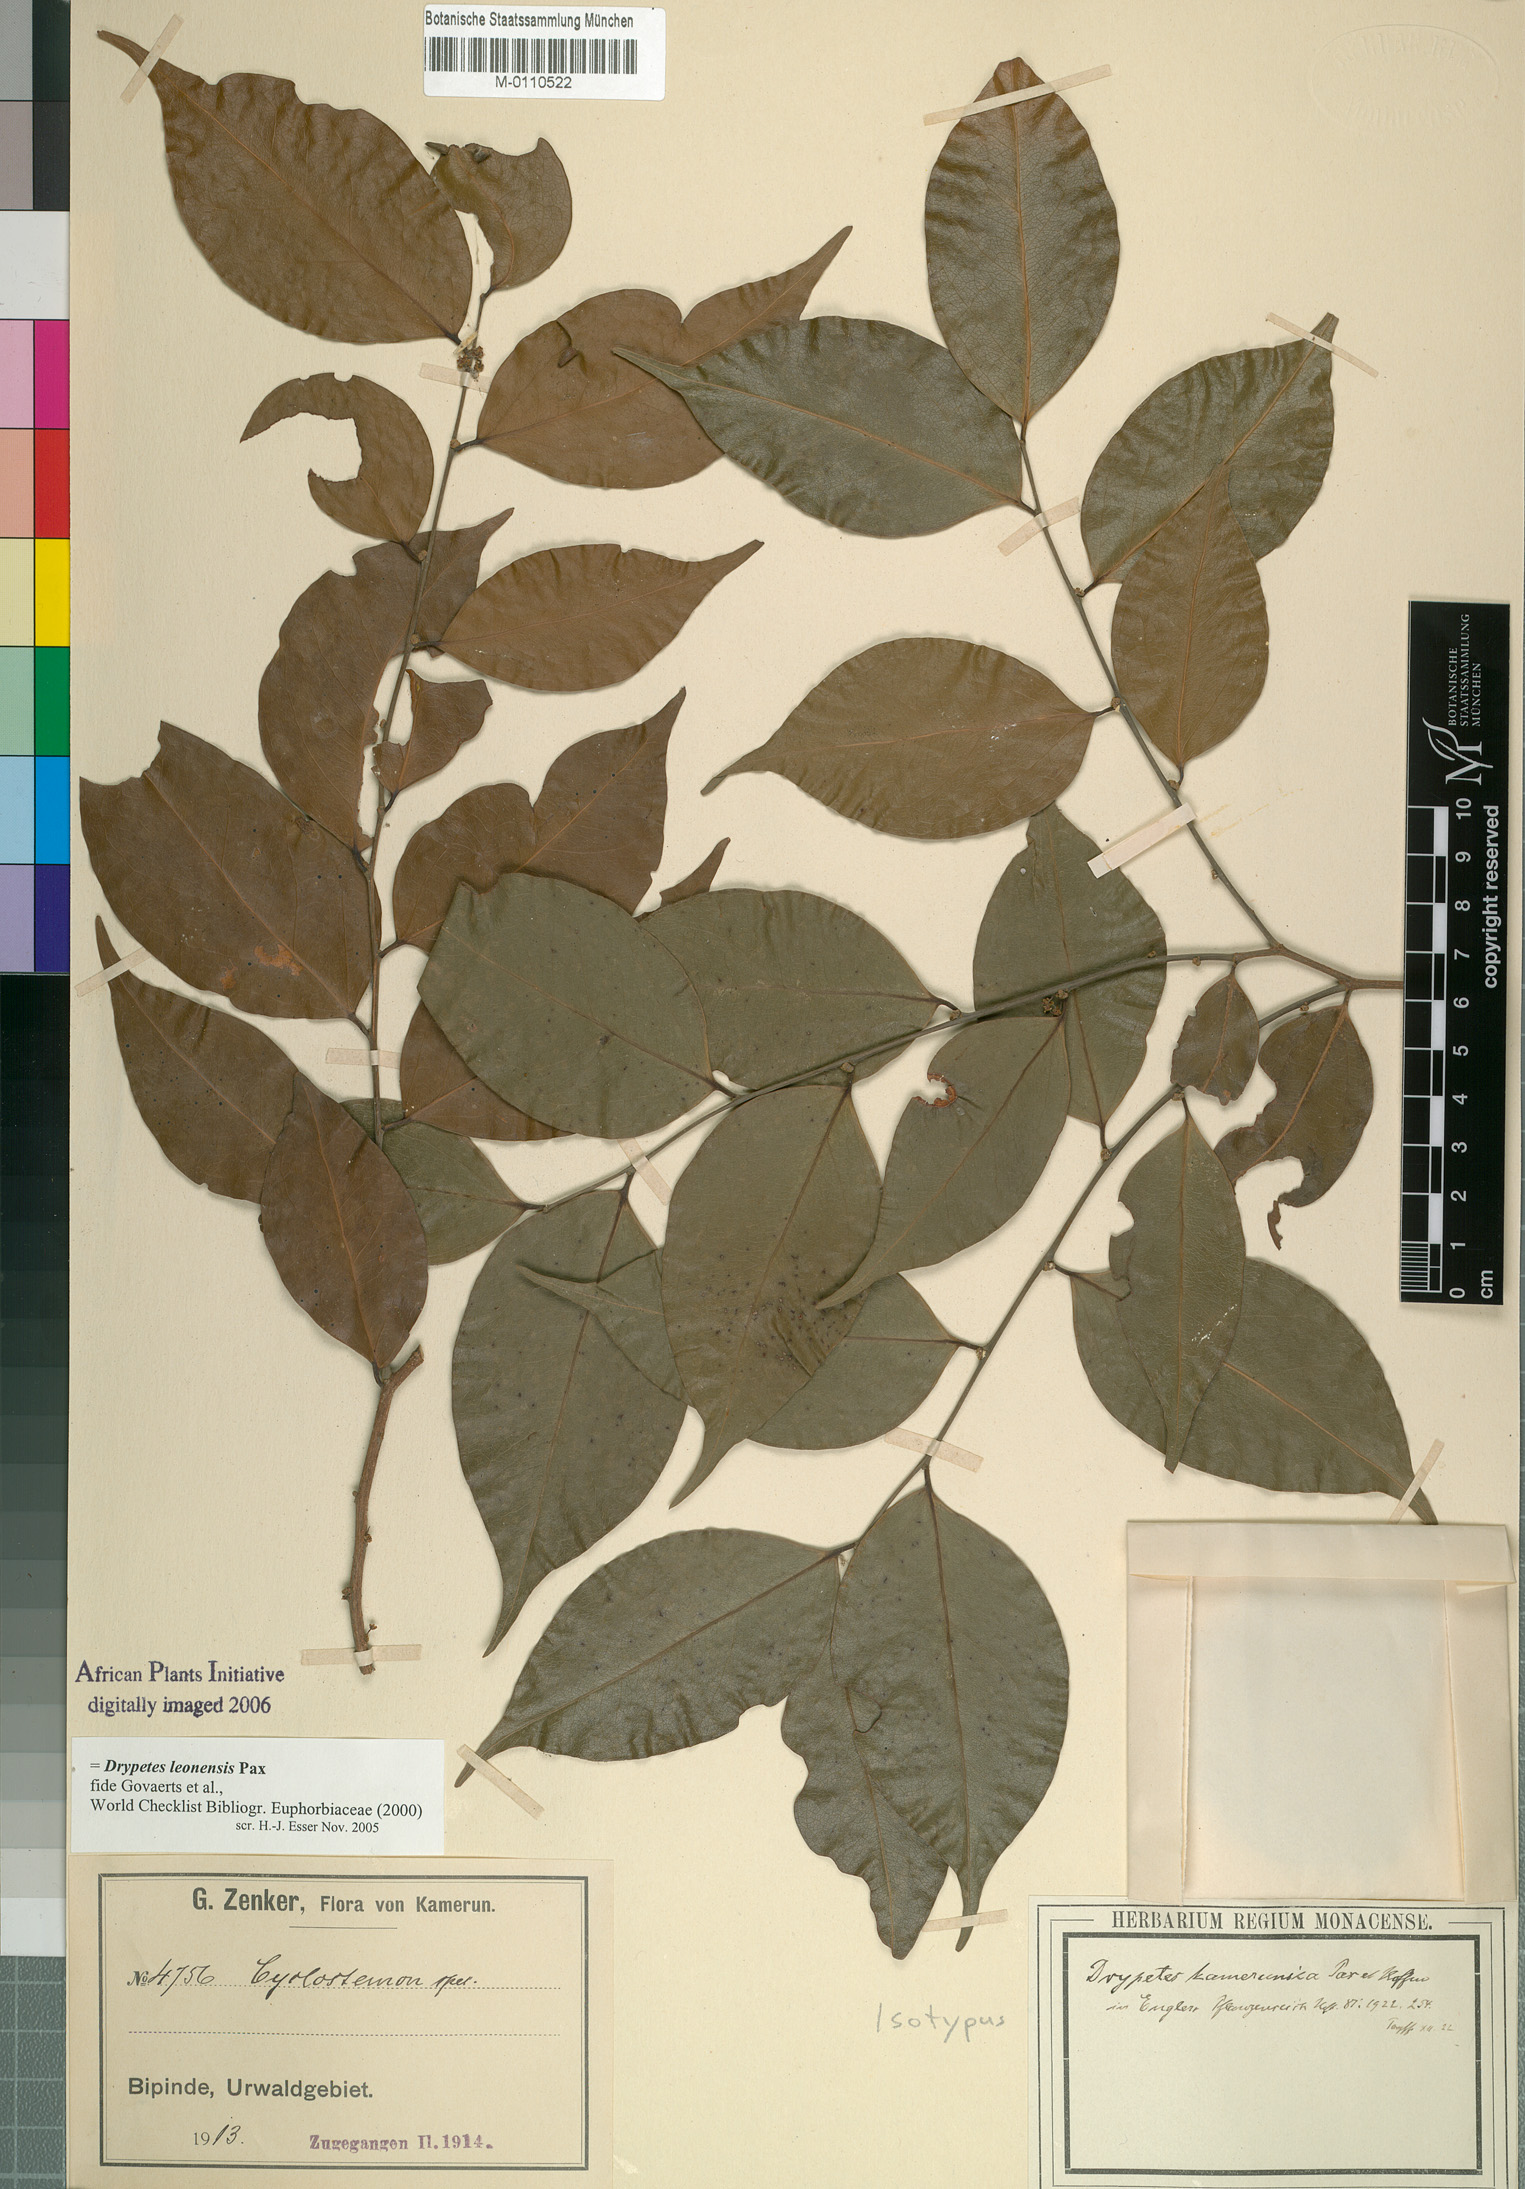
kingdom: Plantae
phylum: Tracheophyta
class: Magnoliopsida
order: Malpighiales
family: Putranjivaceae
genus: Drypetes
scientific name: Drypetes leonensis
